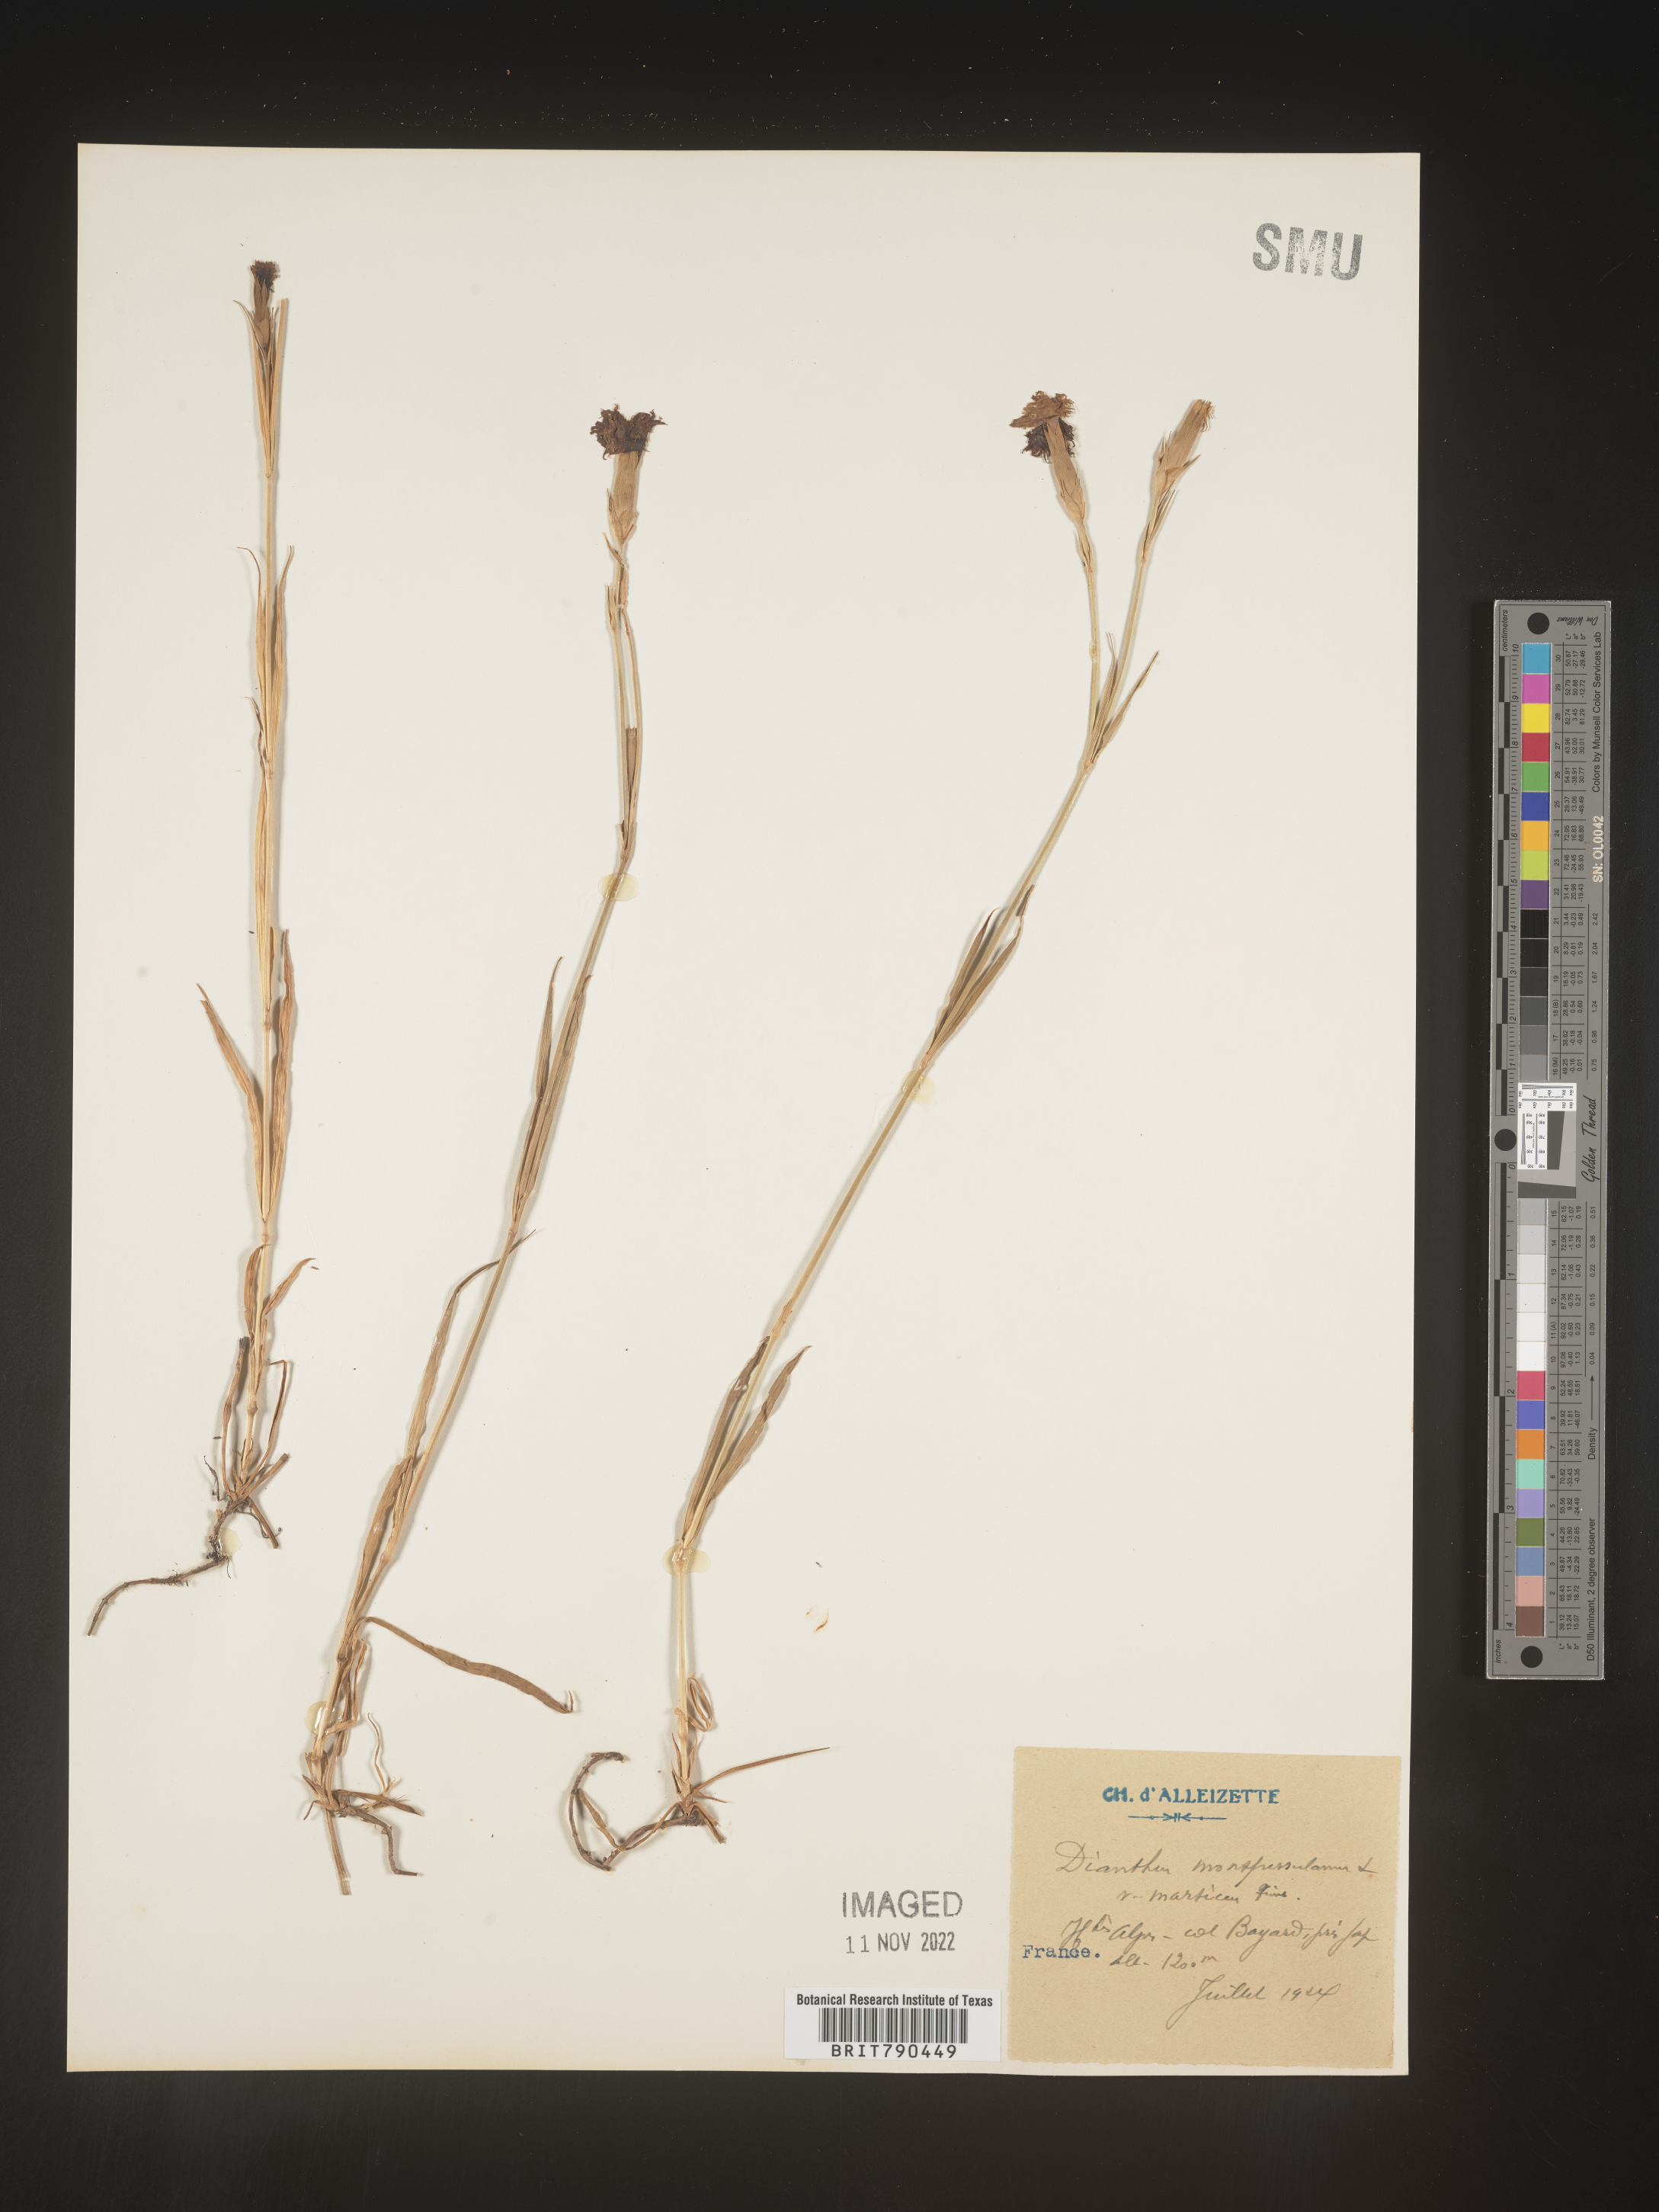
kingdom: Plantae
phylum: Tracheophyta
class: Magnoliopsida
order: Caryophyllales
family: Caryophyllaceae
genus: Dianthus
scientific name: Dianthus
